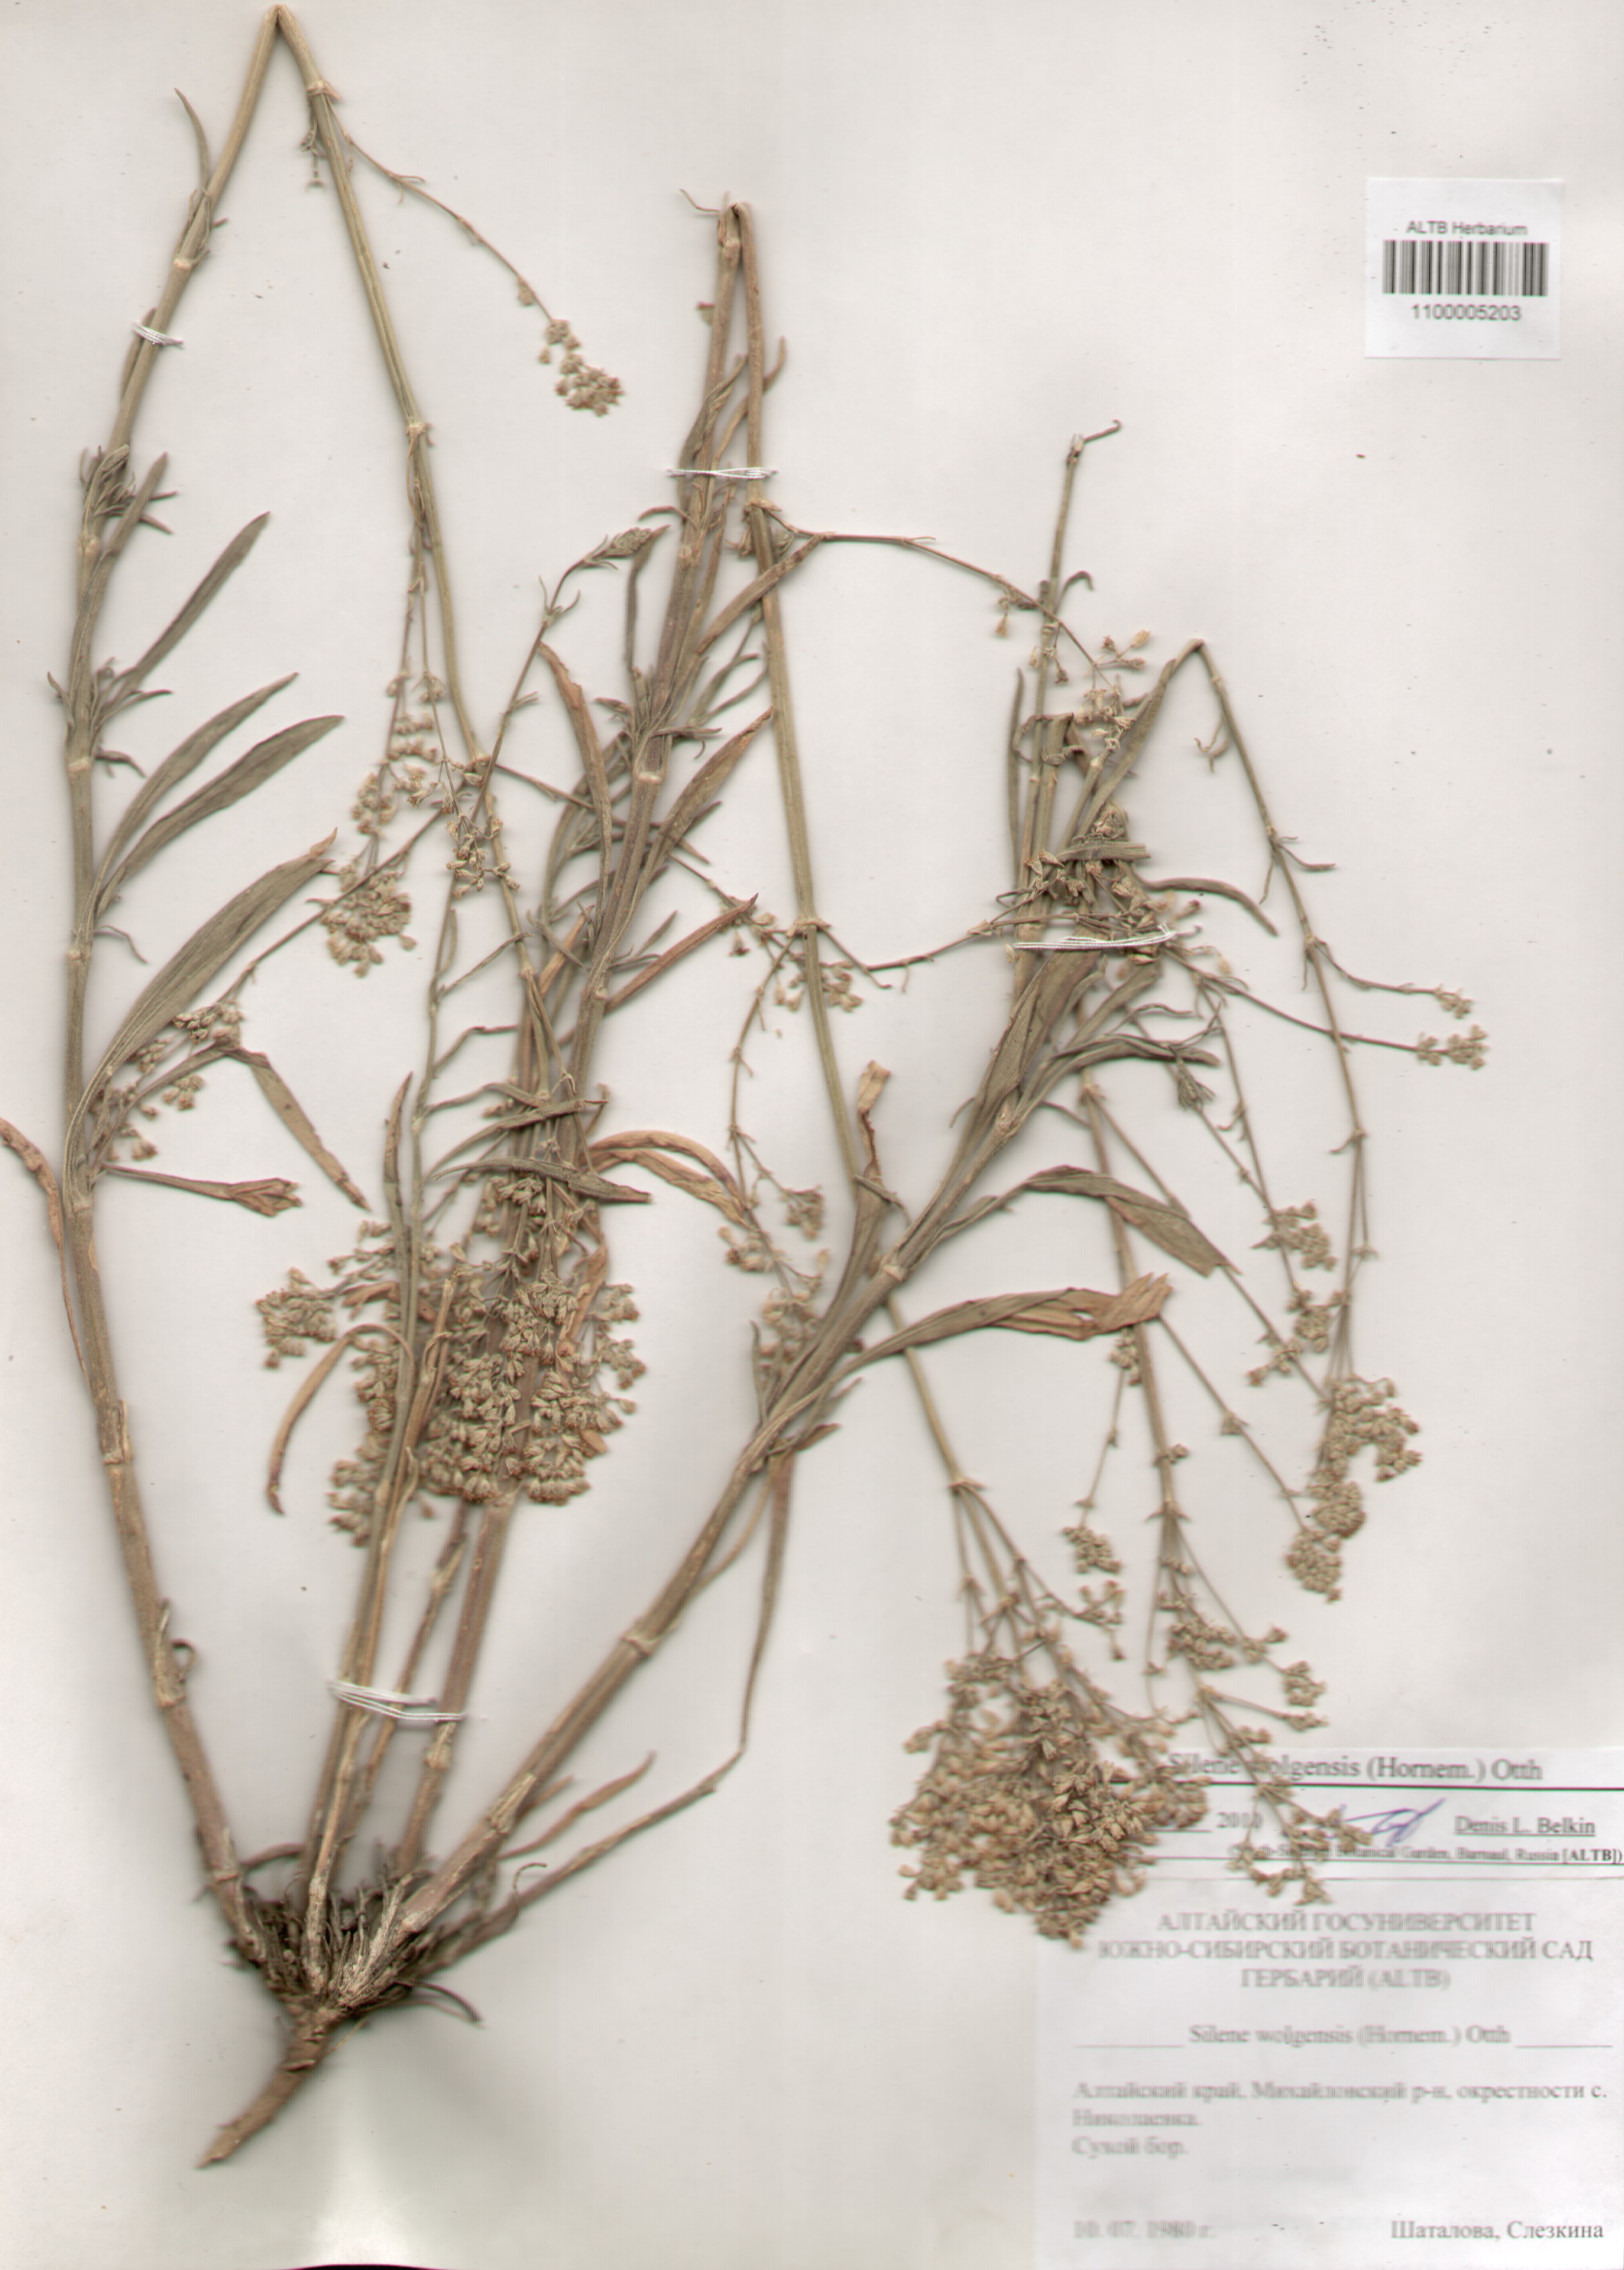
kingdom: Plantae
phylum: Tracheophyta
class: Magnoliopsida
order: Caryophyllales
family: Caryophyllaceae
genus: Silene
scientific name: Silene wolgensis
